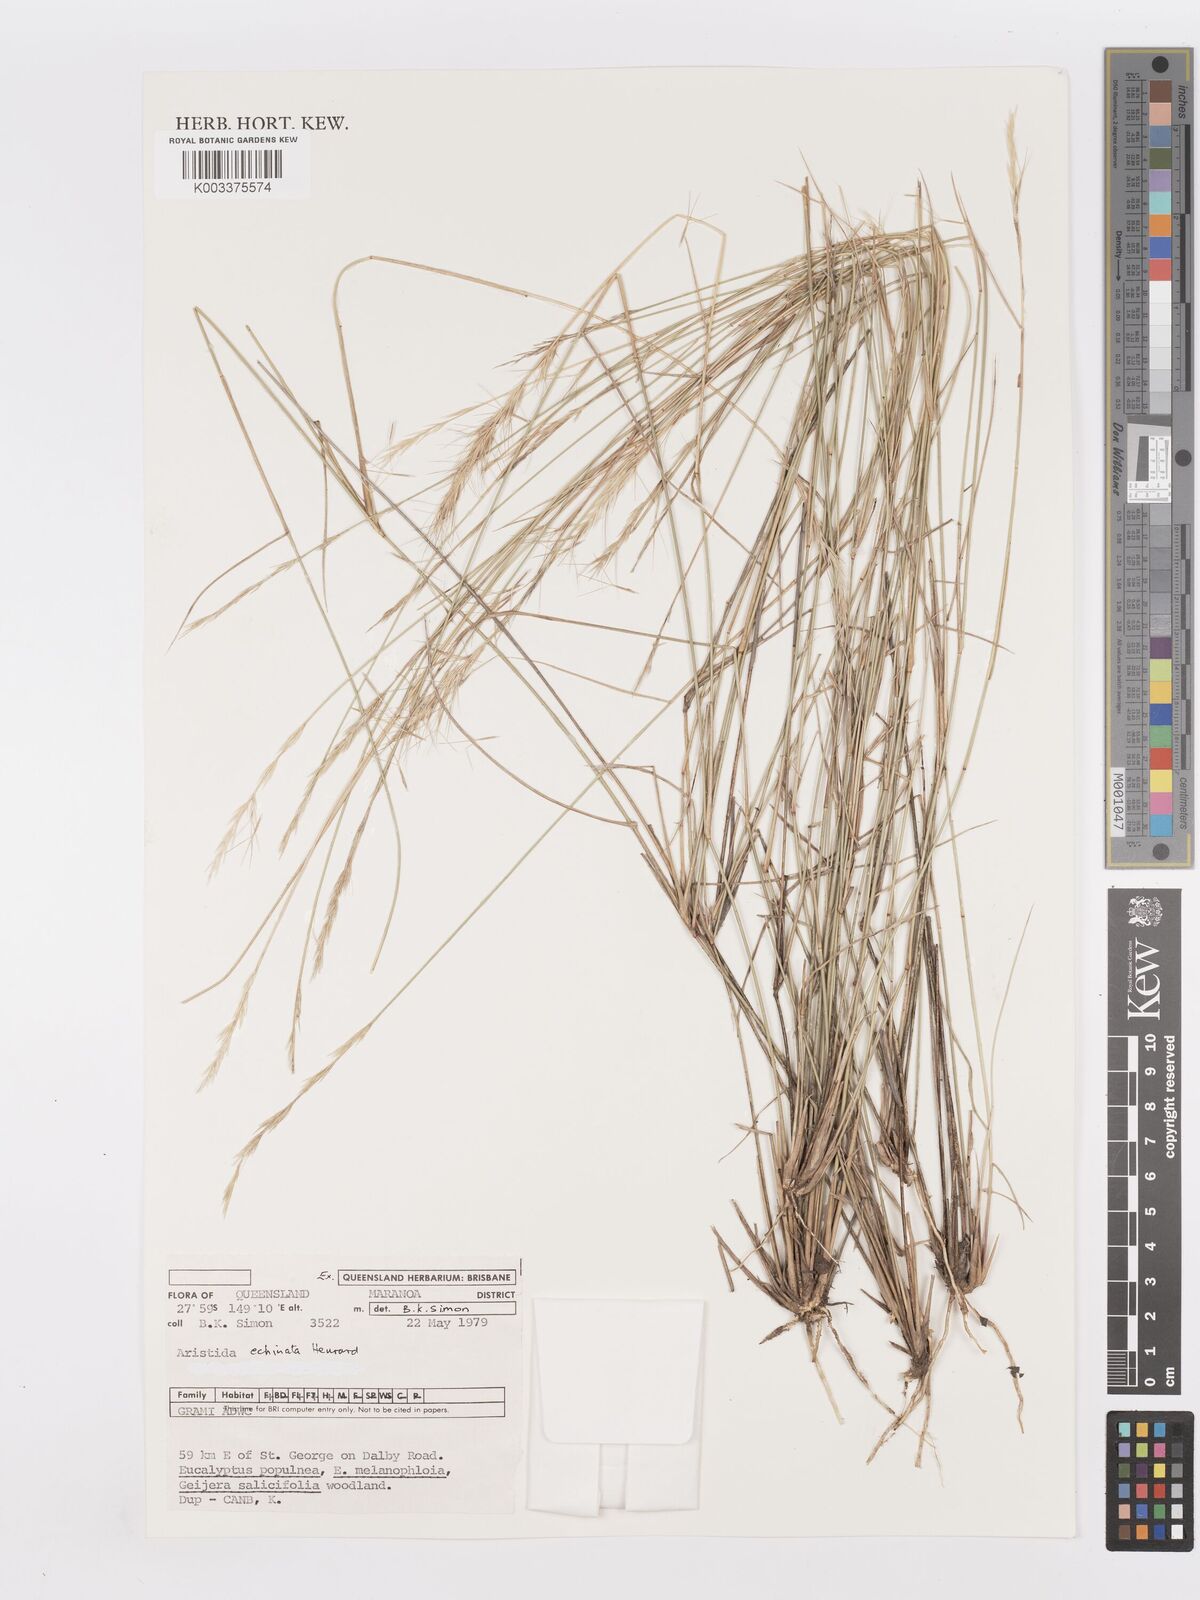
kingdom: Plantae
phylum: Tracheophyta
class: Liliopsida
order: Poales
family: Poaceae
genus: Aristida
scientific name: Aristida echinata
